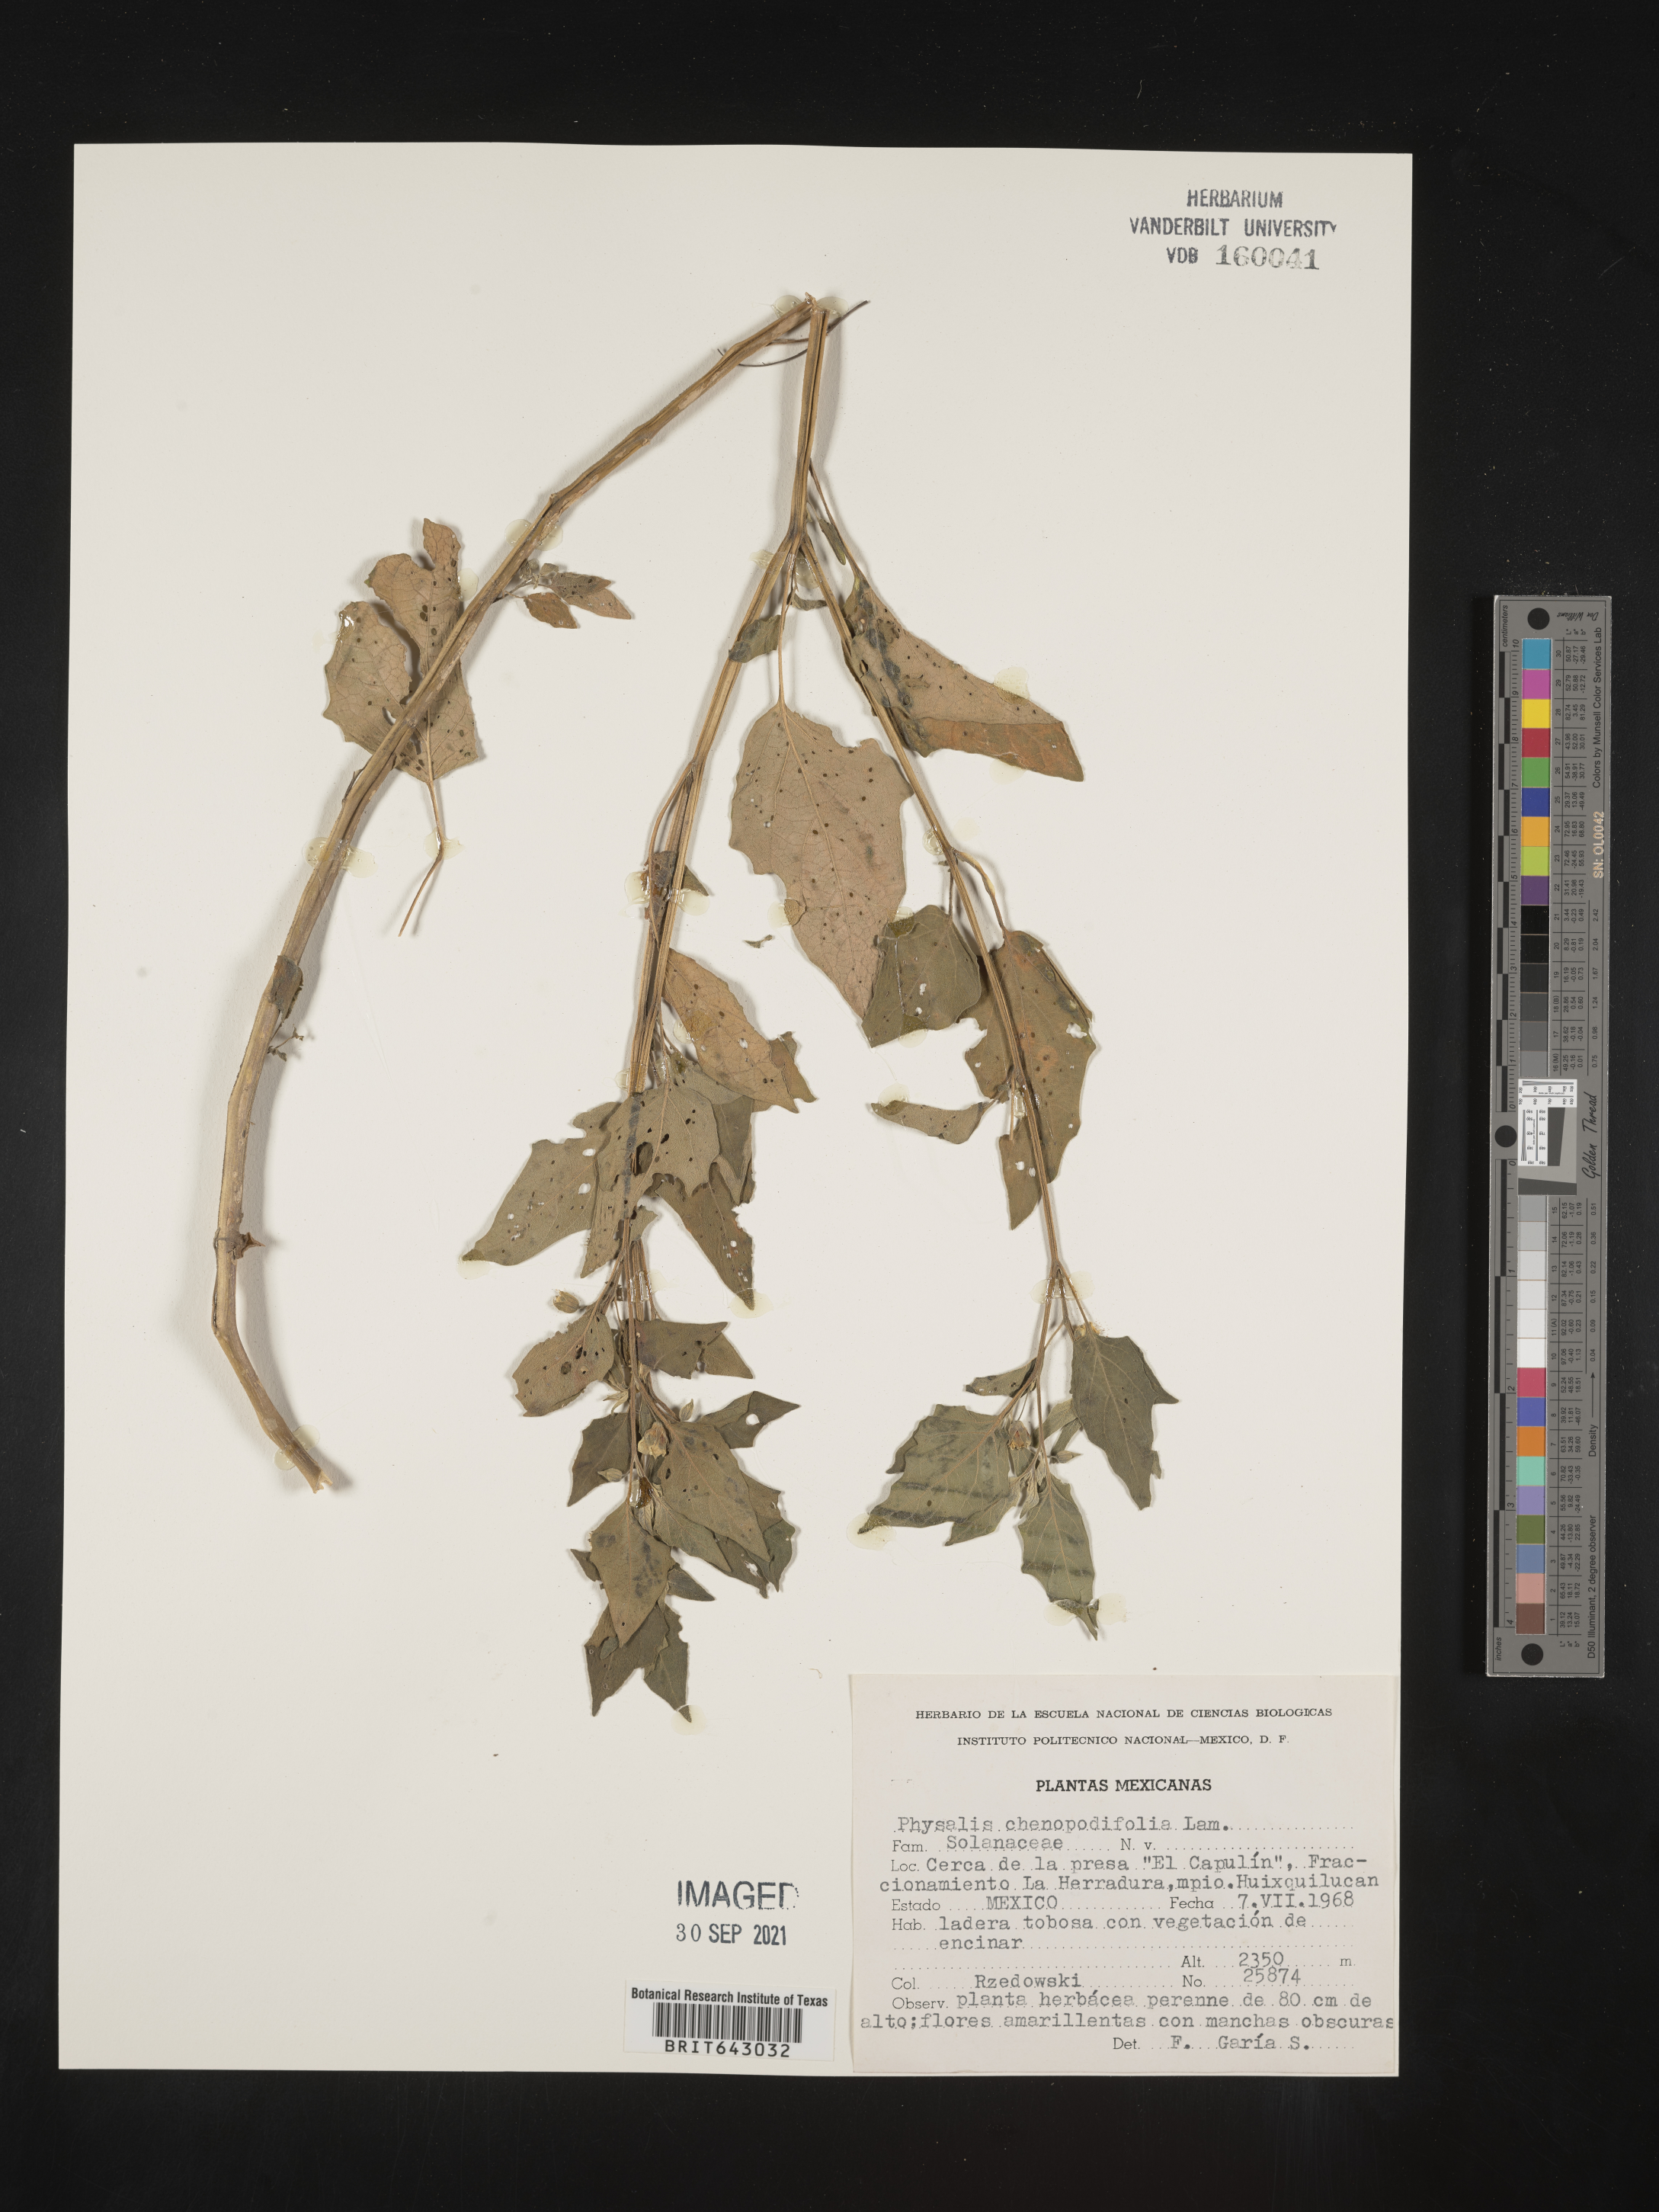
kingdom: Plantae
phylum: Tracheophyta
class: Magnoliopsida
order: Solanales
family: Solanaceae
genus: Physalis
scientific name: Physalis
